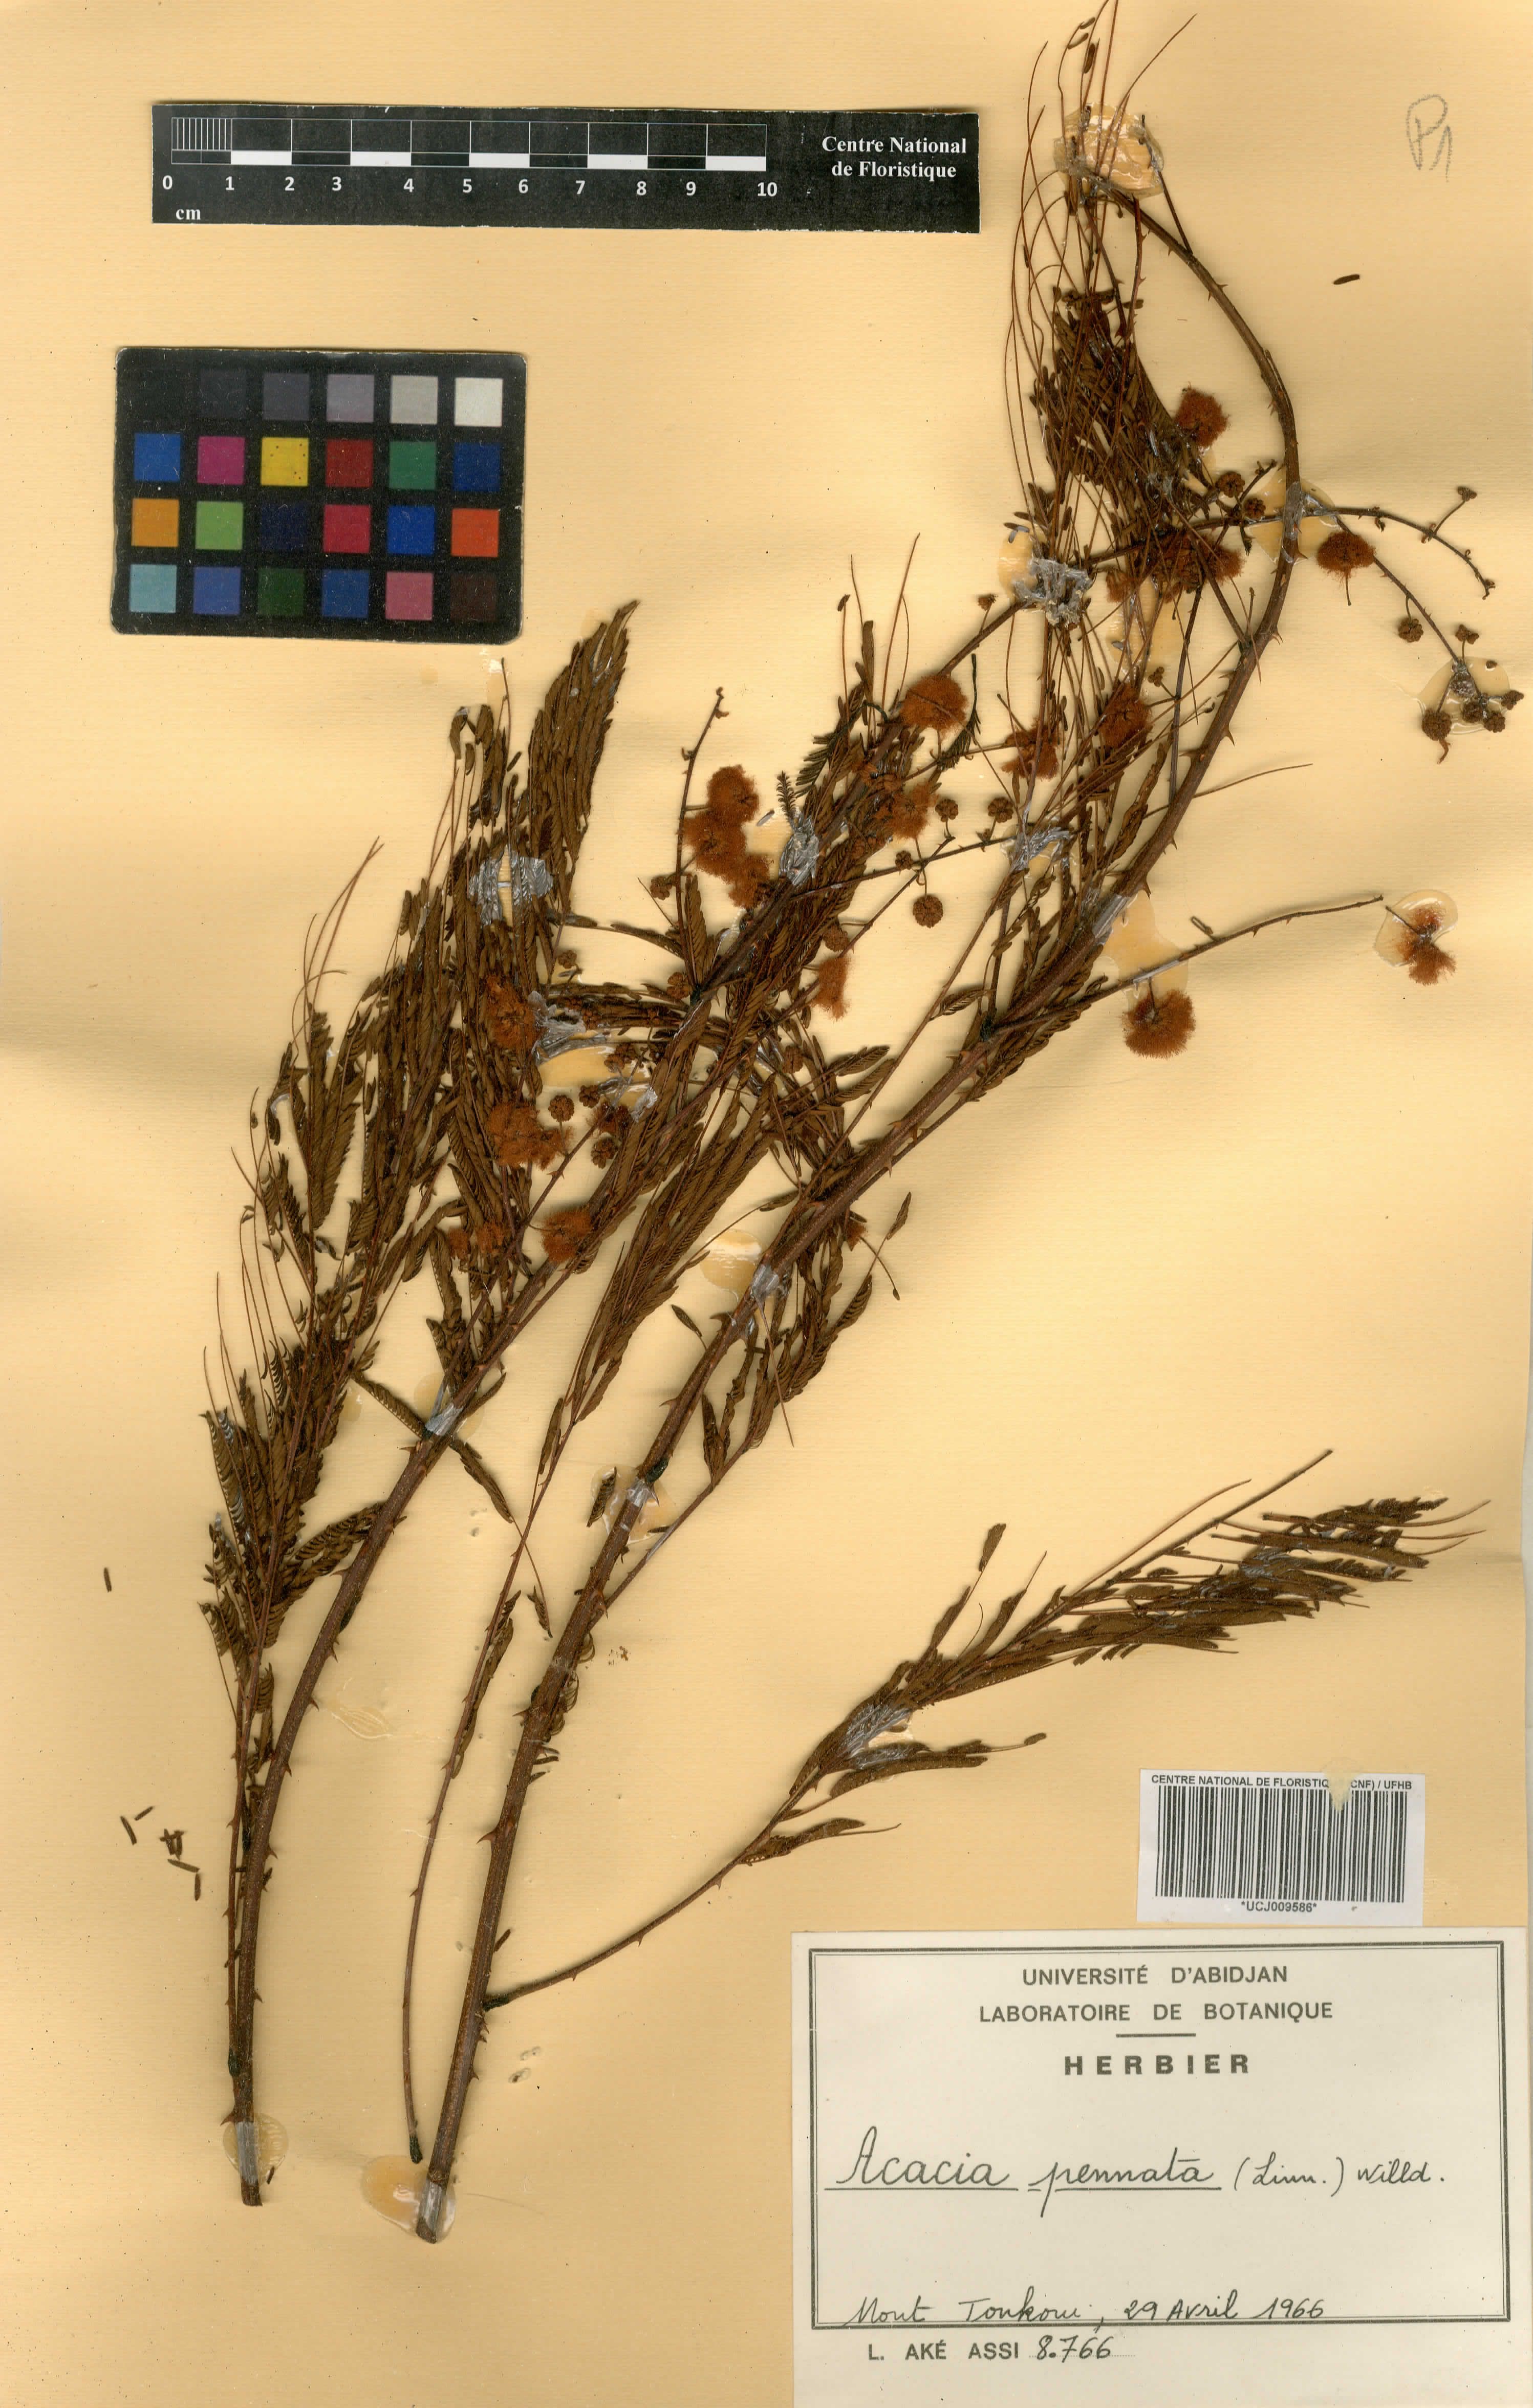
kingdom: Plantae
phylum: Tracheophyta
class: Magnoliopsida
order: Fabales
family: Fabaceae
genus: Senegalia
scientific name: Senegalia pennata
